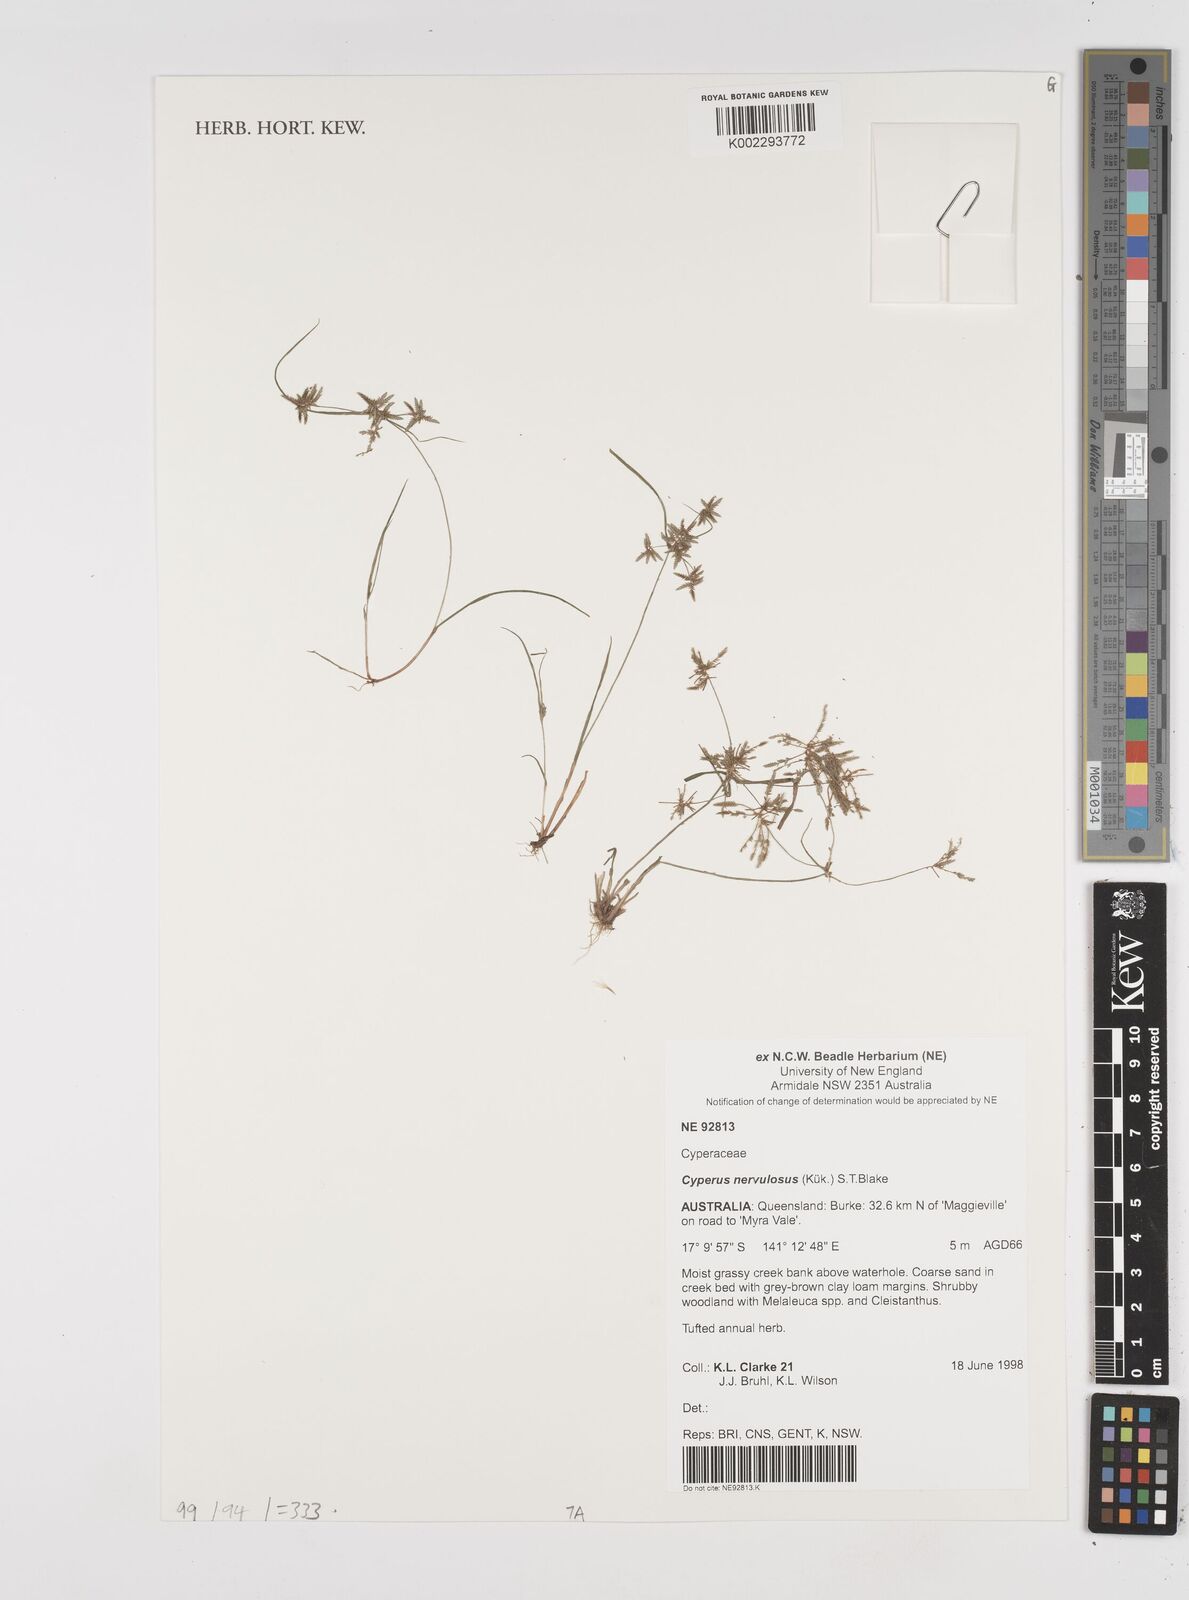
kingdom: Plantae
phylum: Tracheophyta
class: Liliopsida
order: Poales
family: Cyperaceae
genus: Cyperus
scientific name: Cyperus nervulosus
